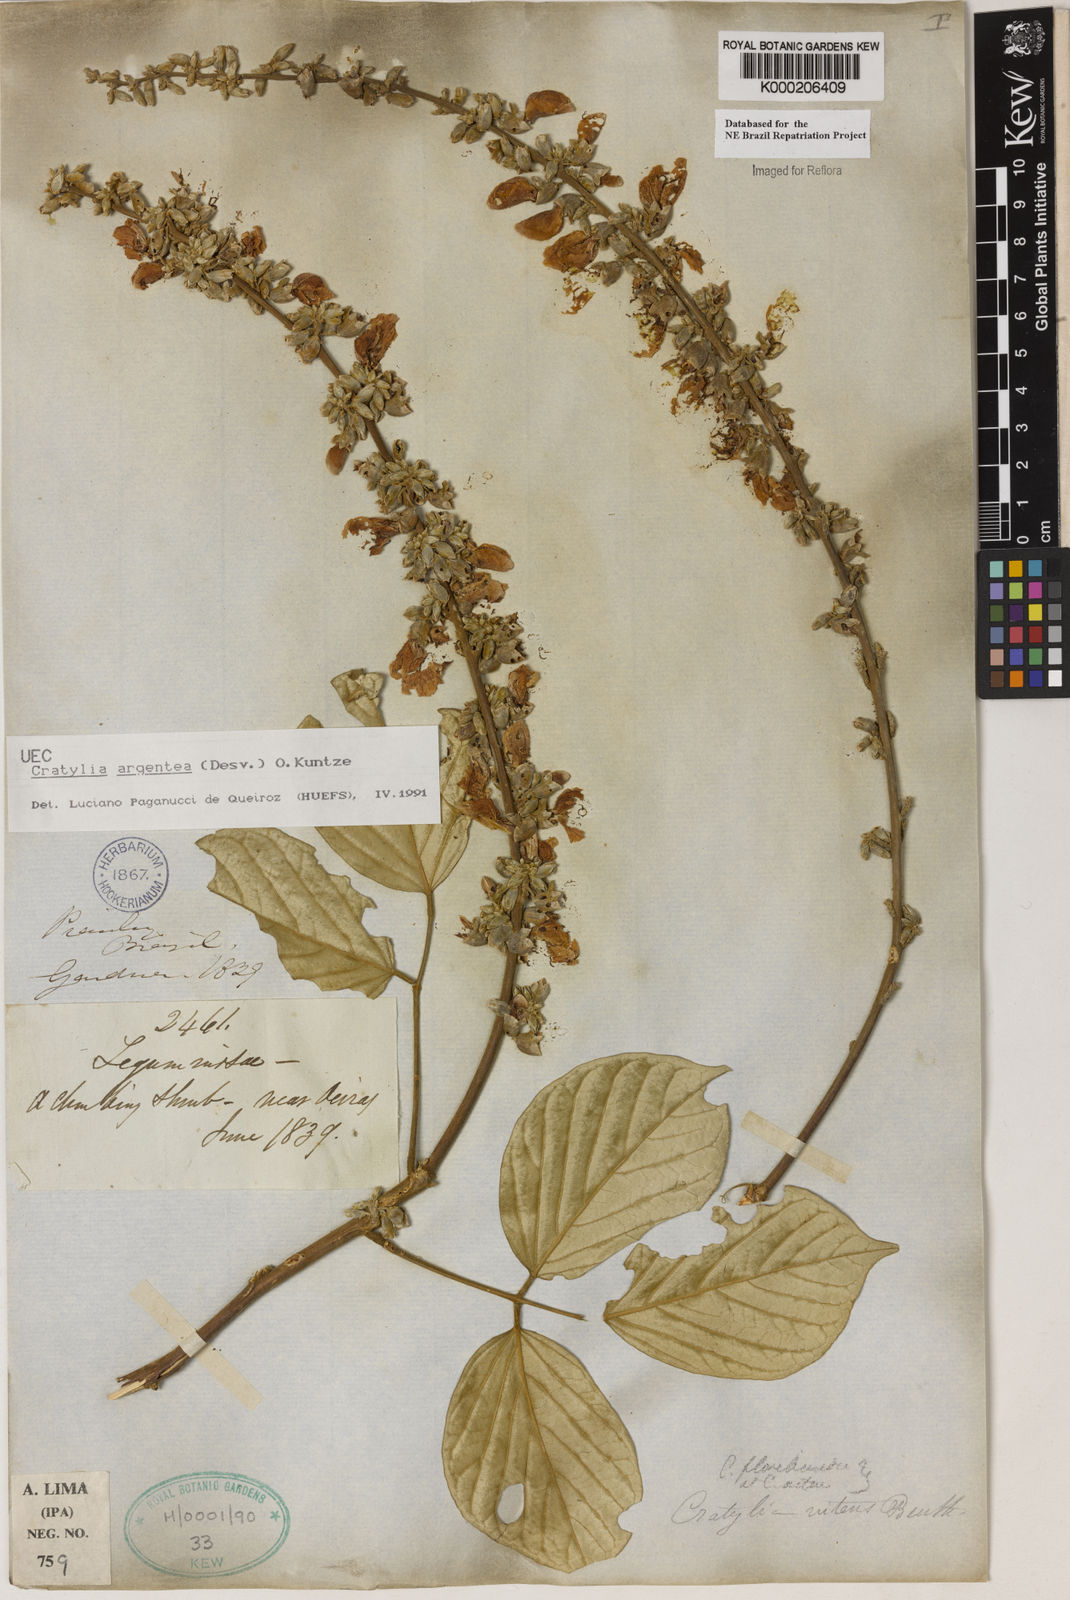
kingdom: Plantae
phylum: Tracheophyta
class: Magnoliopsida
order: Fabales
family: Fabaceae
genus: Cratylia
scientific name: Cratylia argentea
